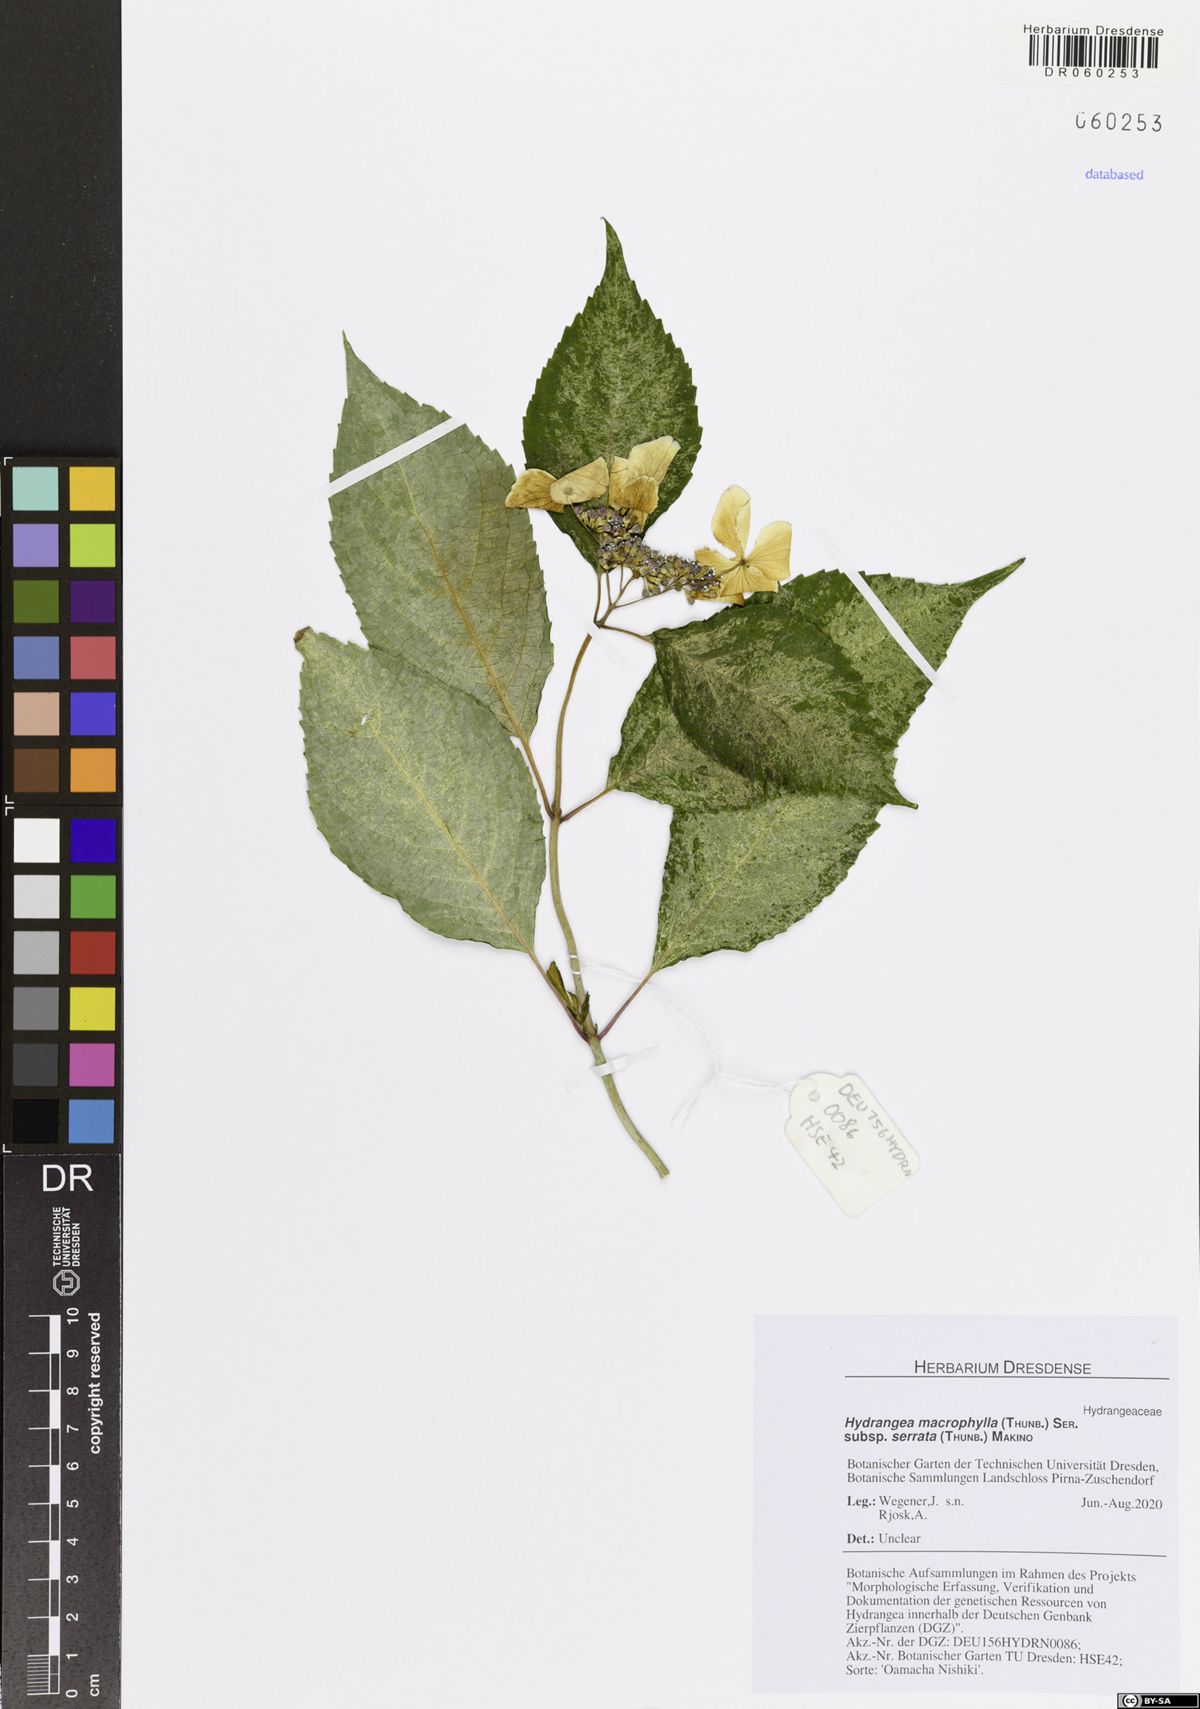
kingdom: Plantae
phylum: Tracheophyta
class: Magnoliopsida
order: Cornales
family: Hydrangeaceae
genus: Hydrangea
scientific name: Hydrangea serrata
